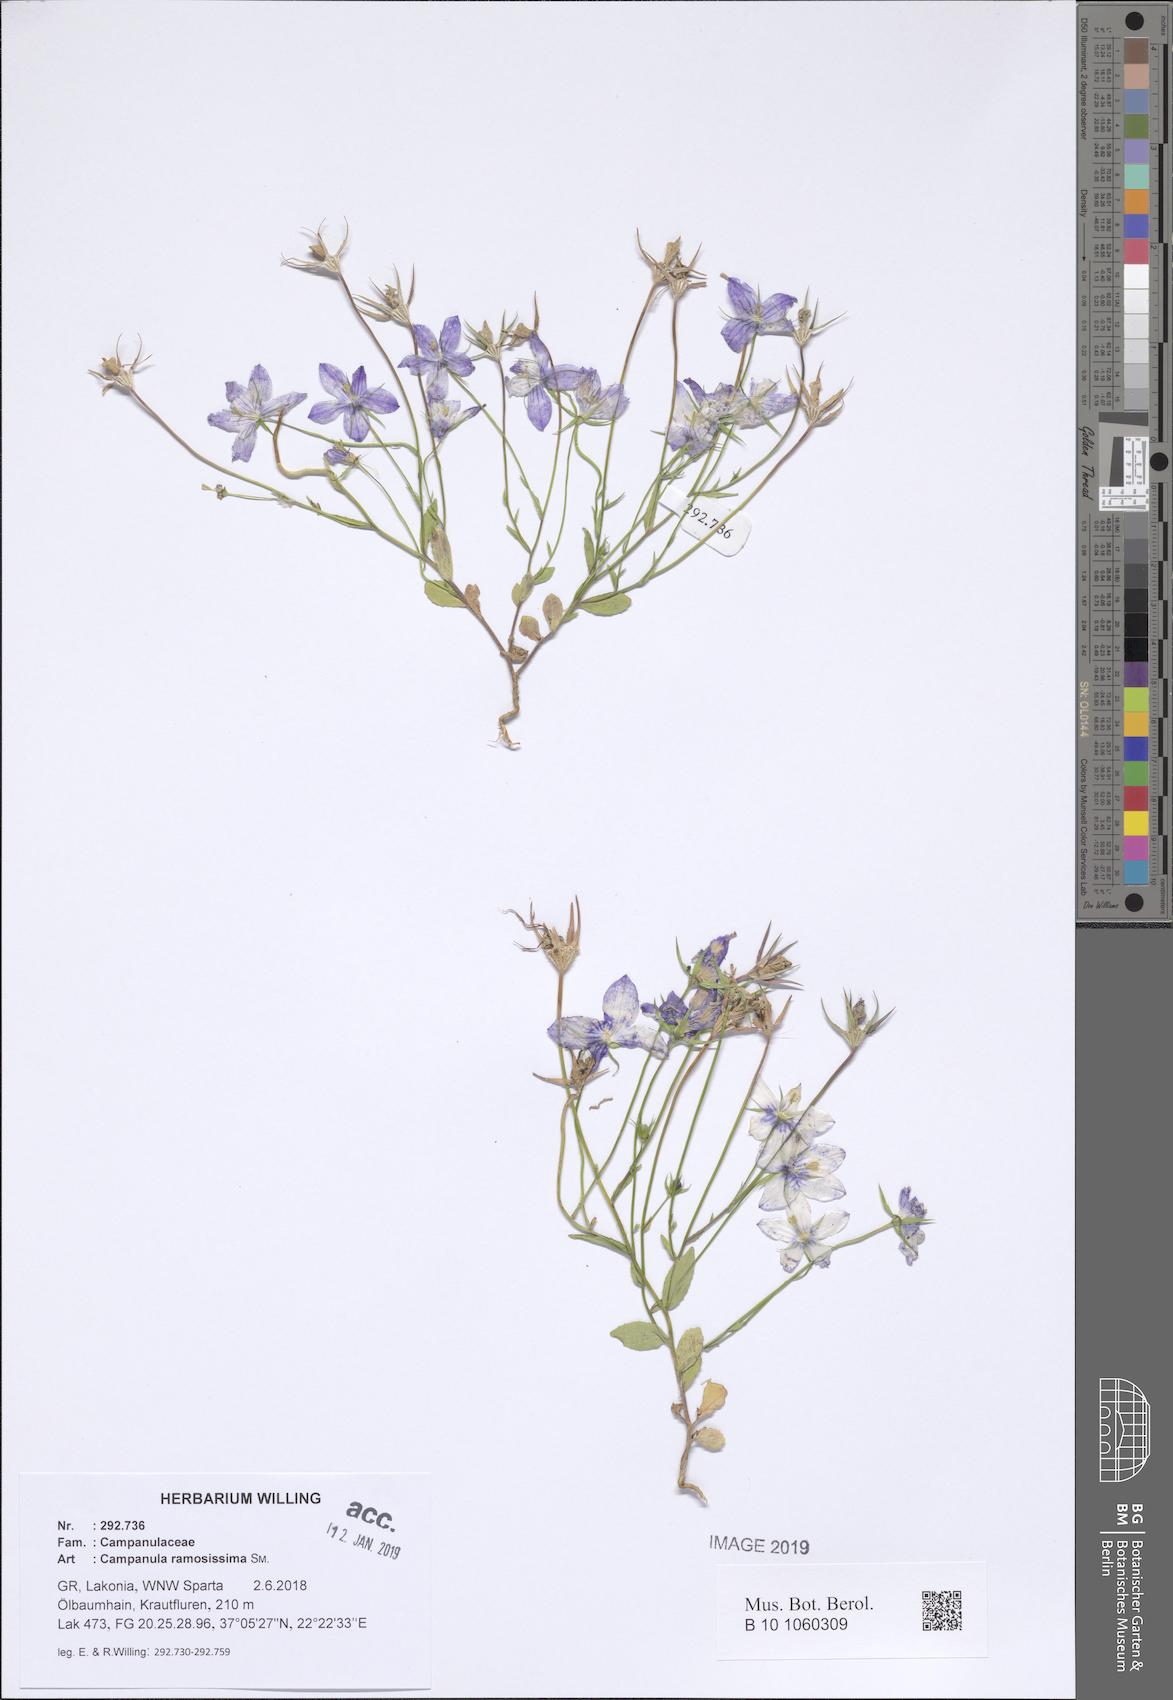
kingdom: Plantae
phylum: Tracheophyta
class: Magnoliopsida
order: Asterales
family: Campanulaceae
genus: Campanula
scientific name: Campanula ramosissima
